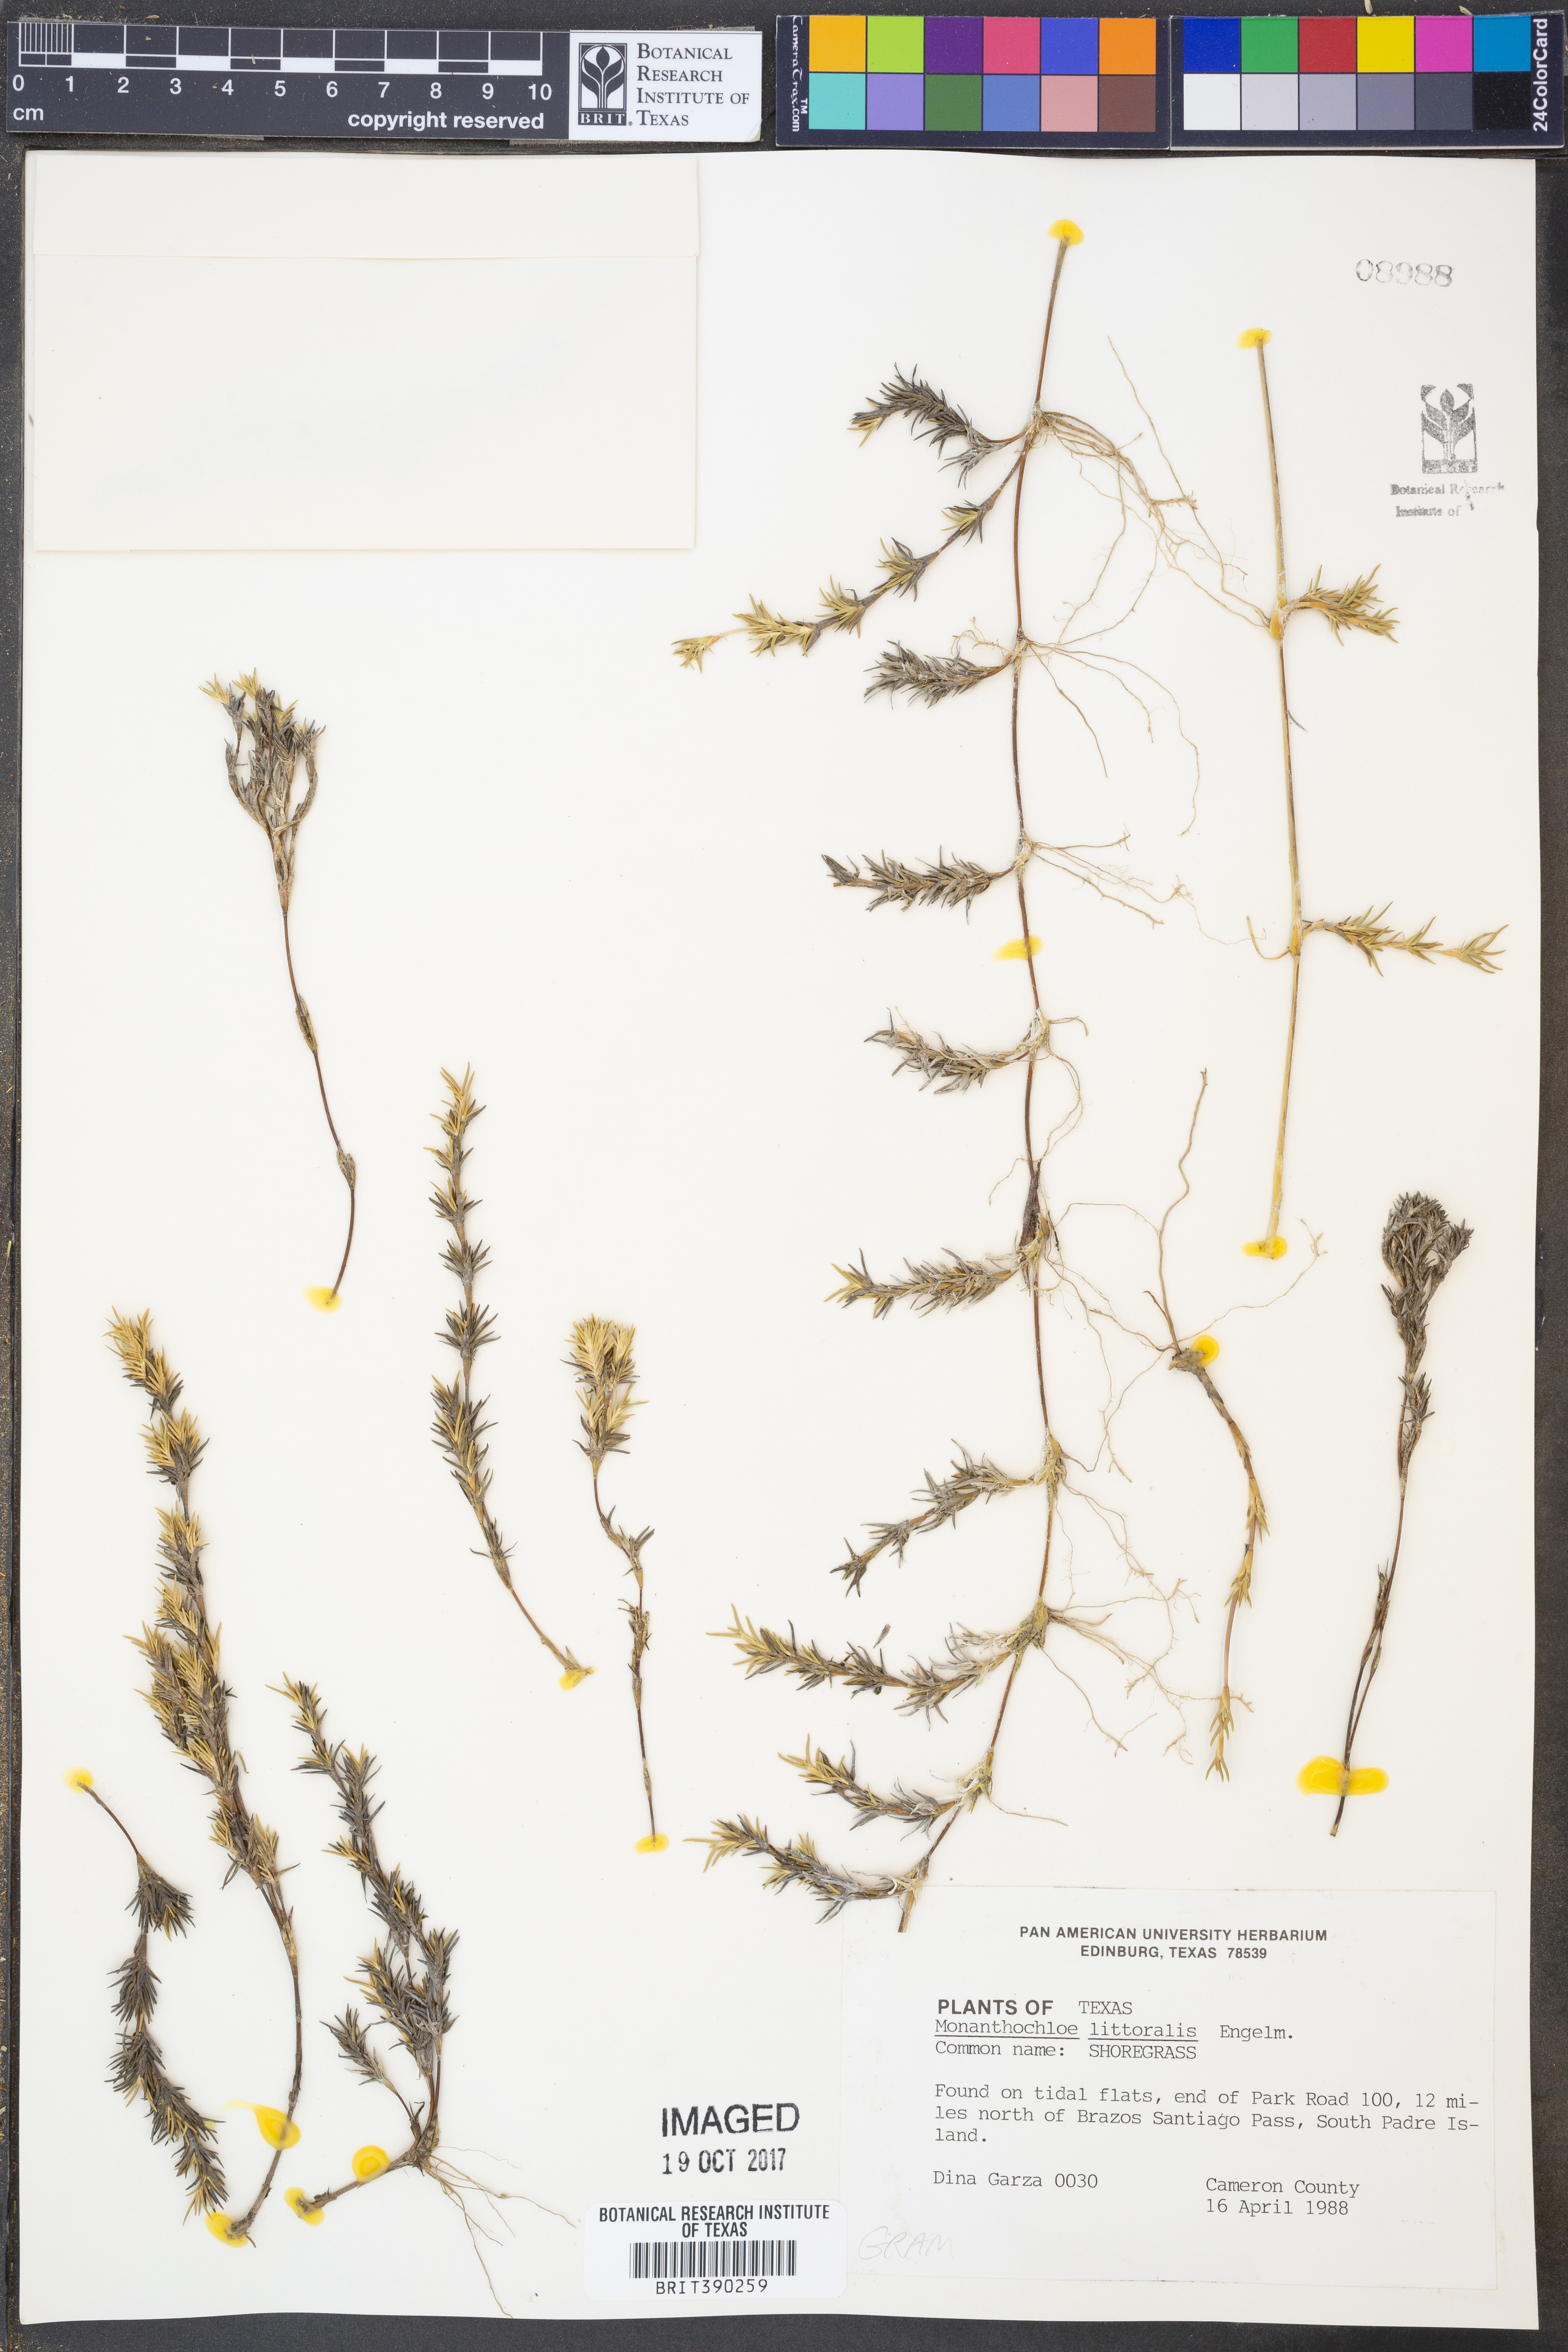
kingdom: Plantae
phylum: Tracheophyta
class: Liliopsida
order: Poales
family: Poaceae
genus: Distichlis
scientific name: Distichlis littoralis
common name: Shore grass
